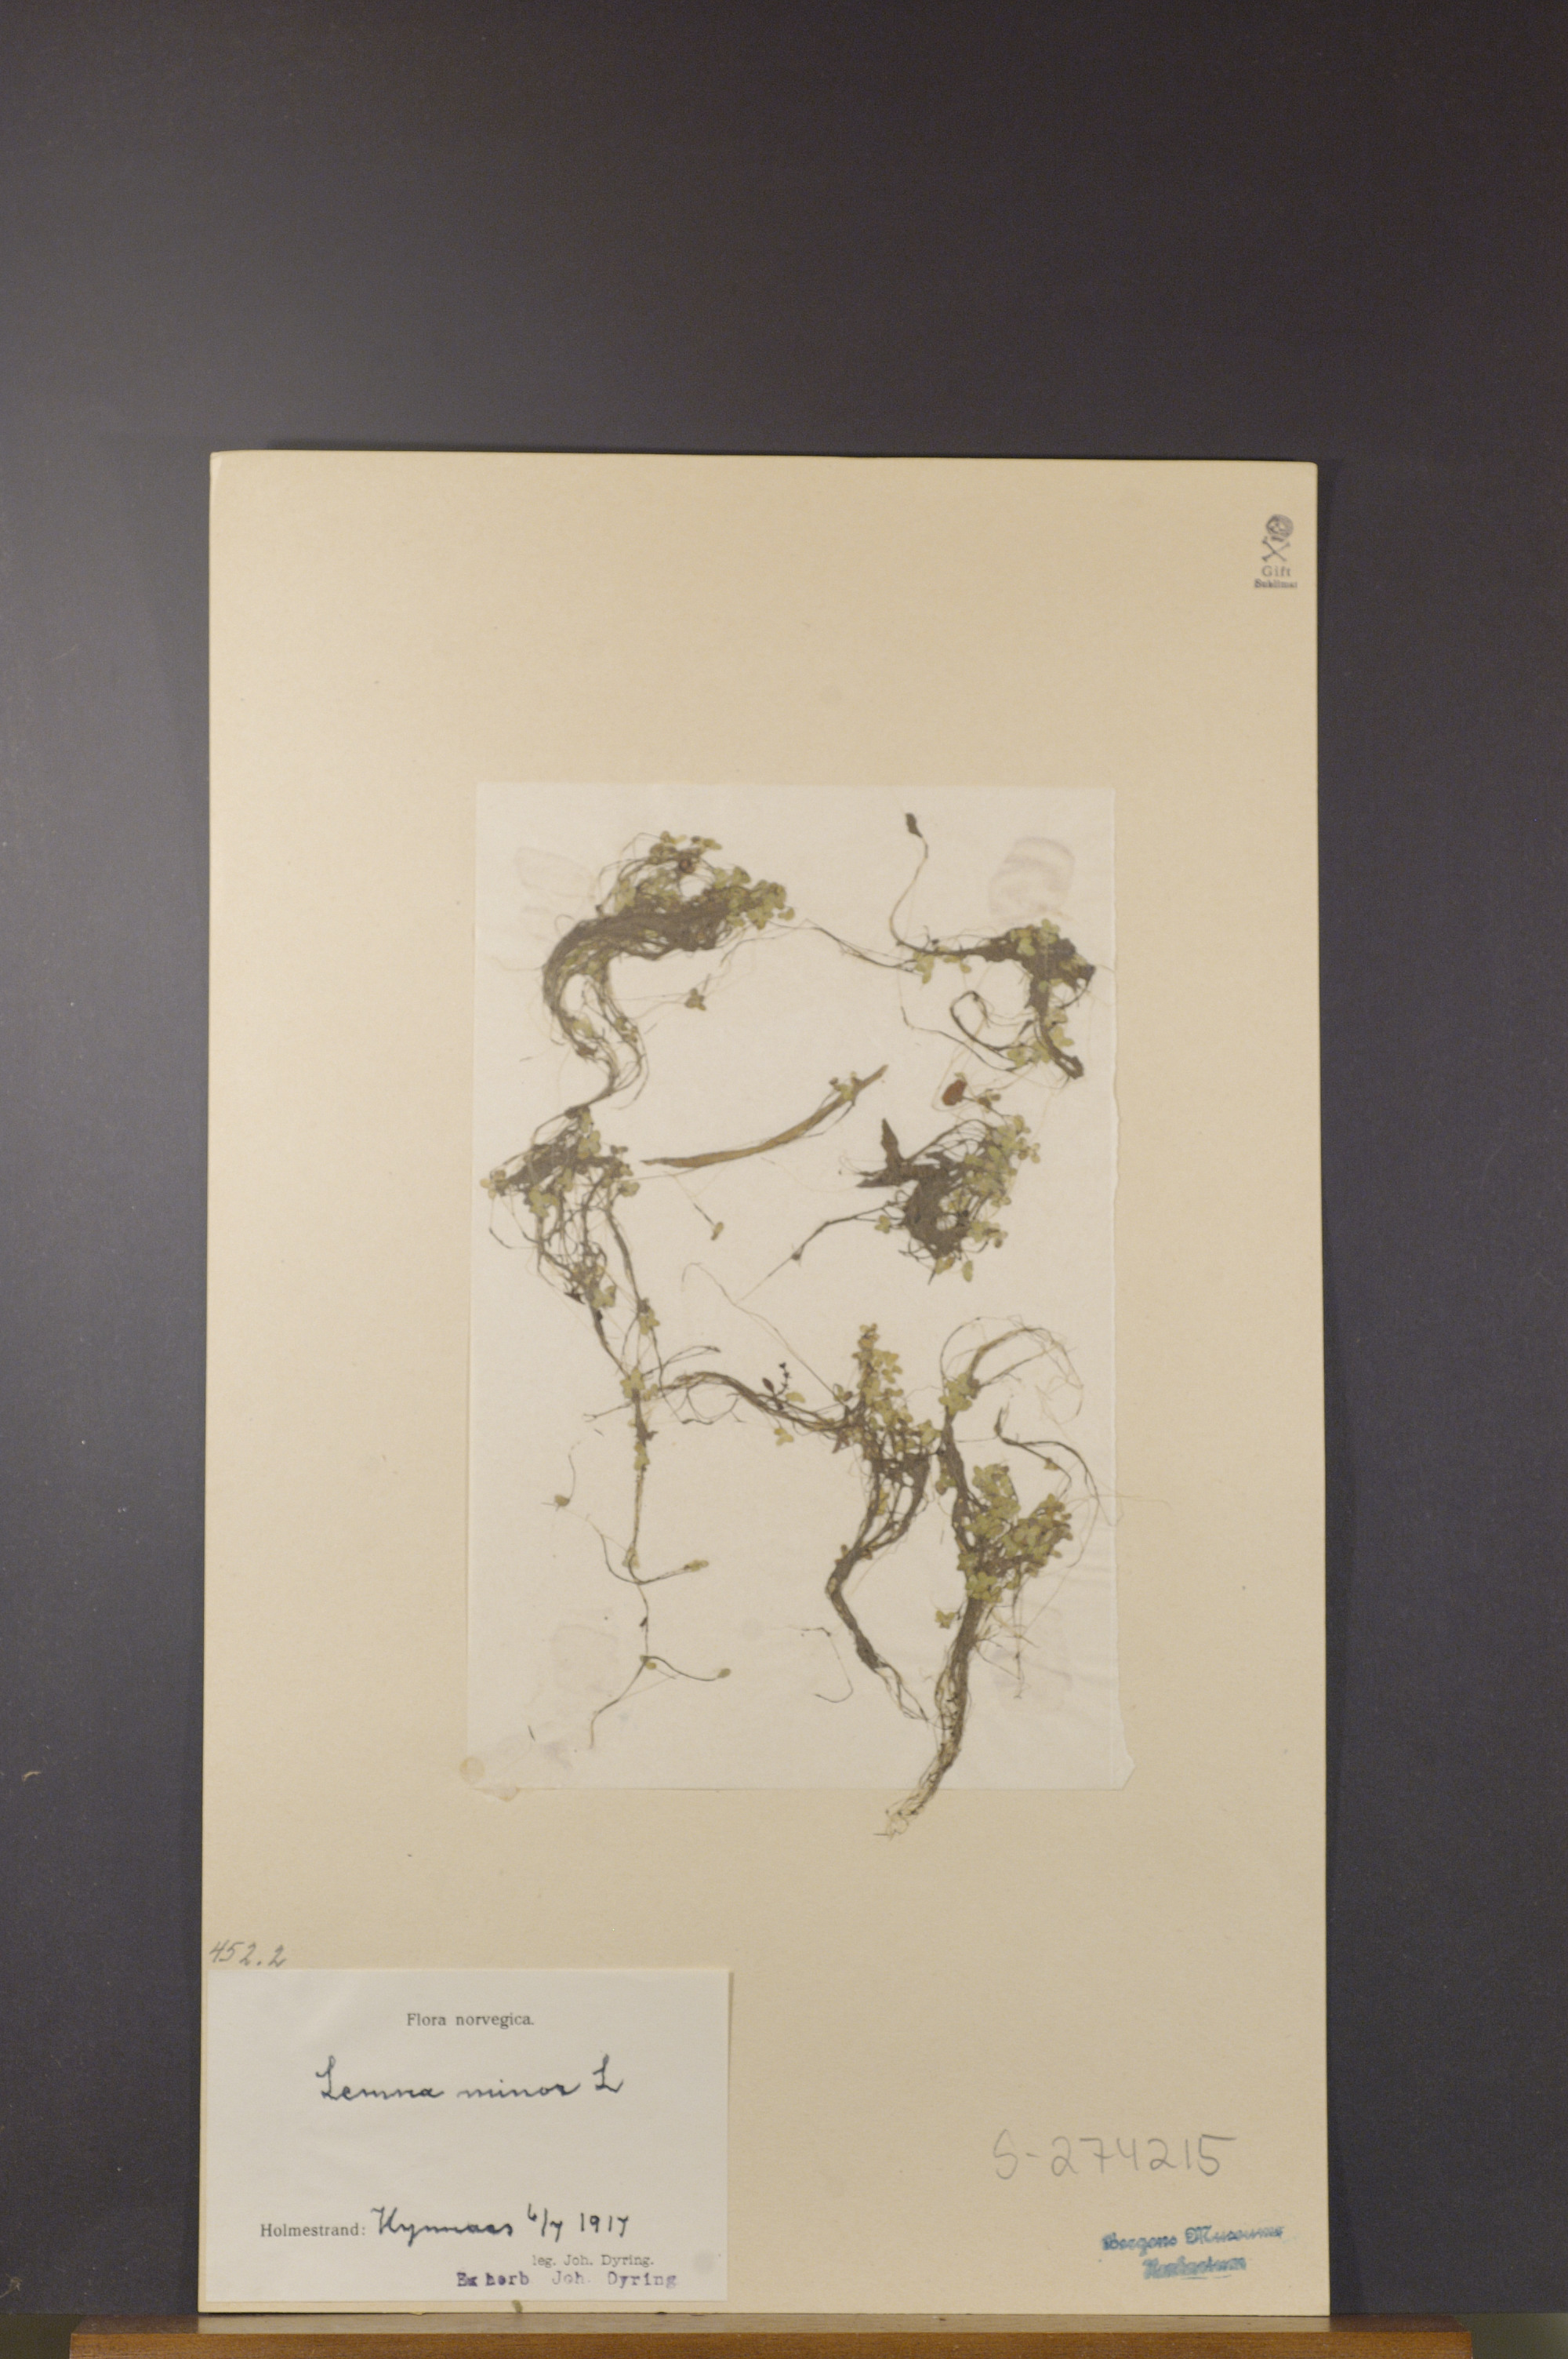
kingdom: Plantae
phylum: Tracheophyta
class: Liliopsida
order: Alismatales
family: Araceae
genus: Lemna
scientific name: Lemna minor
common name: Common duckweed
